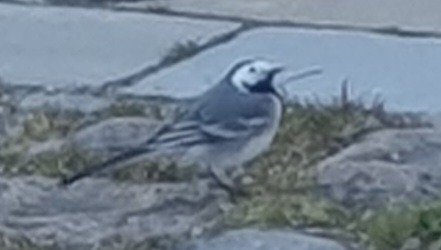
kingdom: Animalia
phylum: Chordata
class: Aves
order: Passeriformes
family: Motacillidae
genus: Motacilla
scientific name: Motacilla alba
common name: Hvid vipstjert
